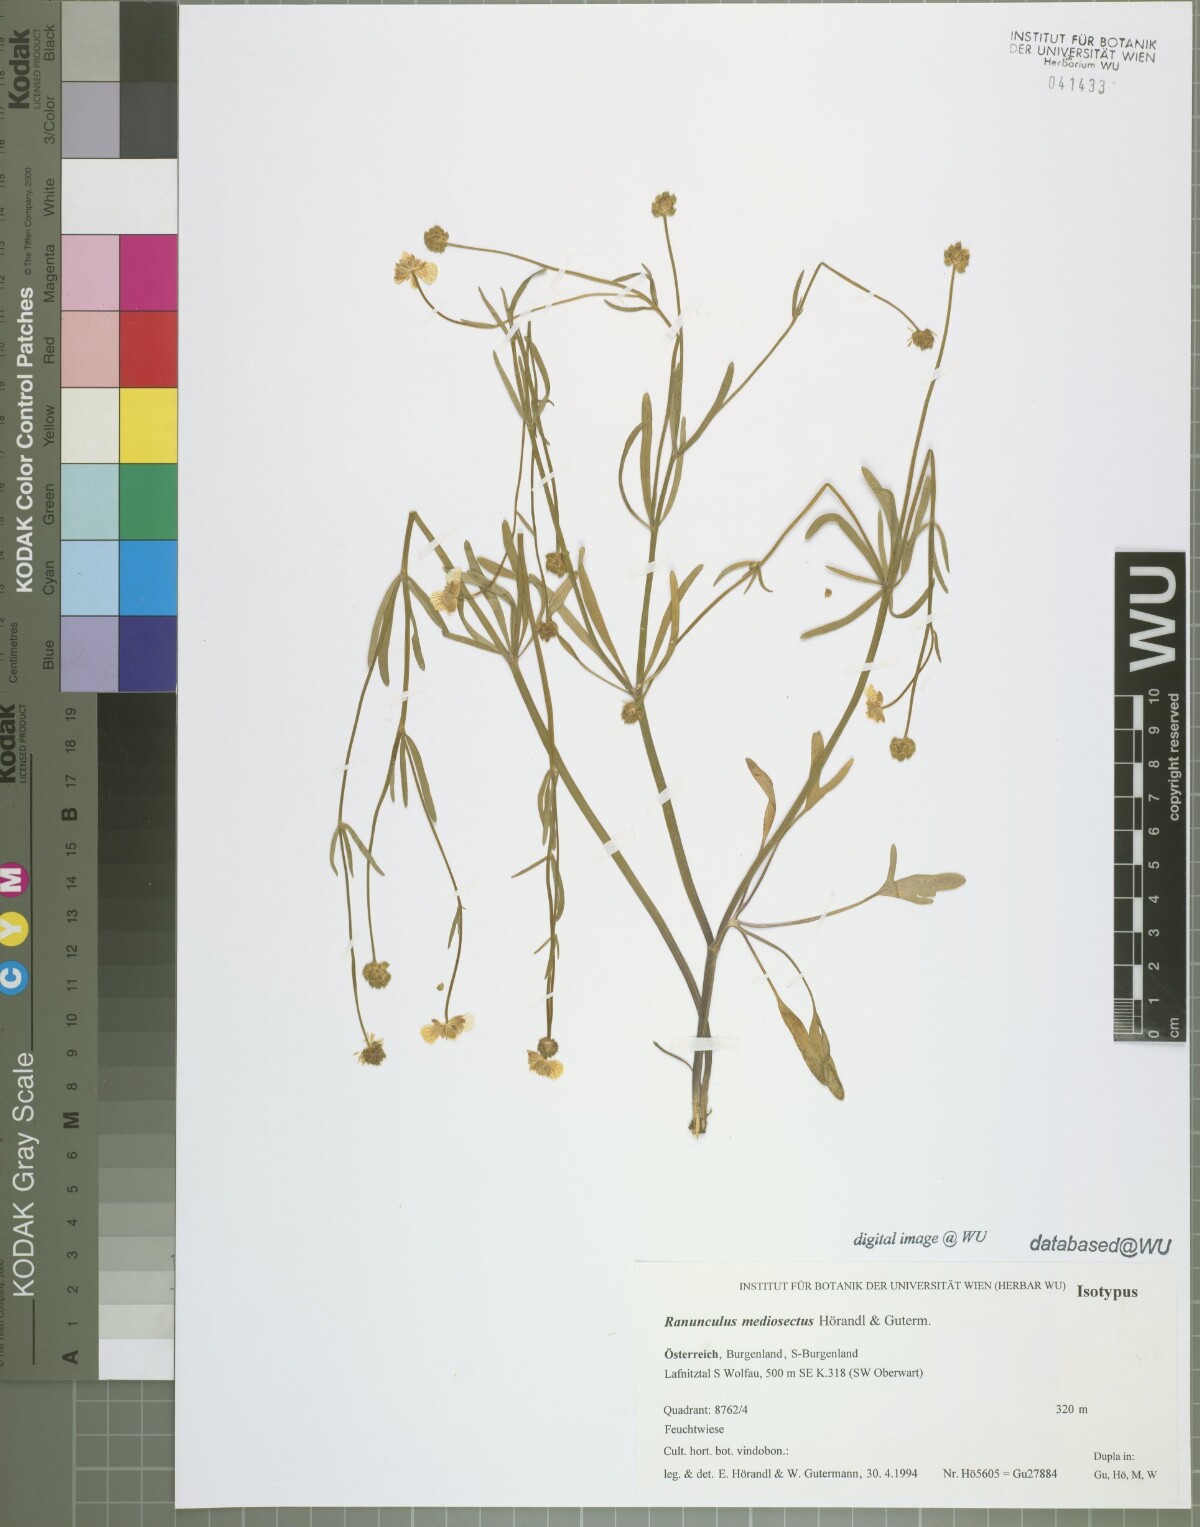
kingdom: Plantae
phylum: Tracheophyta
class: Magnoliopsida
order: Ranunculales
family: Ranunculaceae
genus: Ranunculus
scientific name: Ranunculus mediosectus
